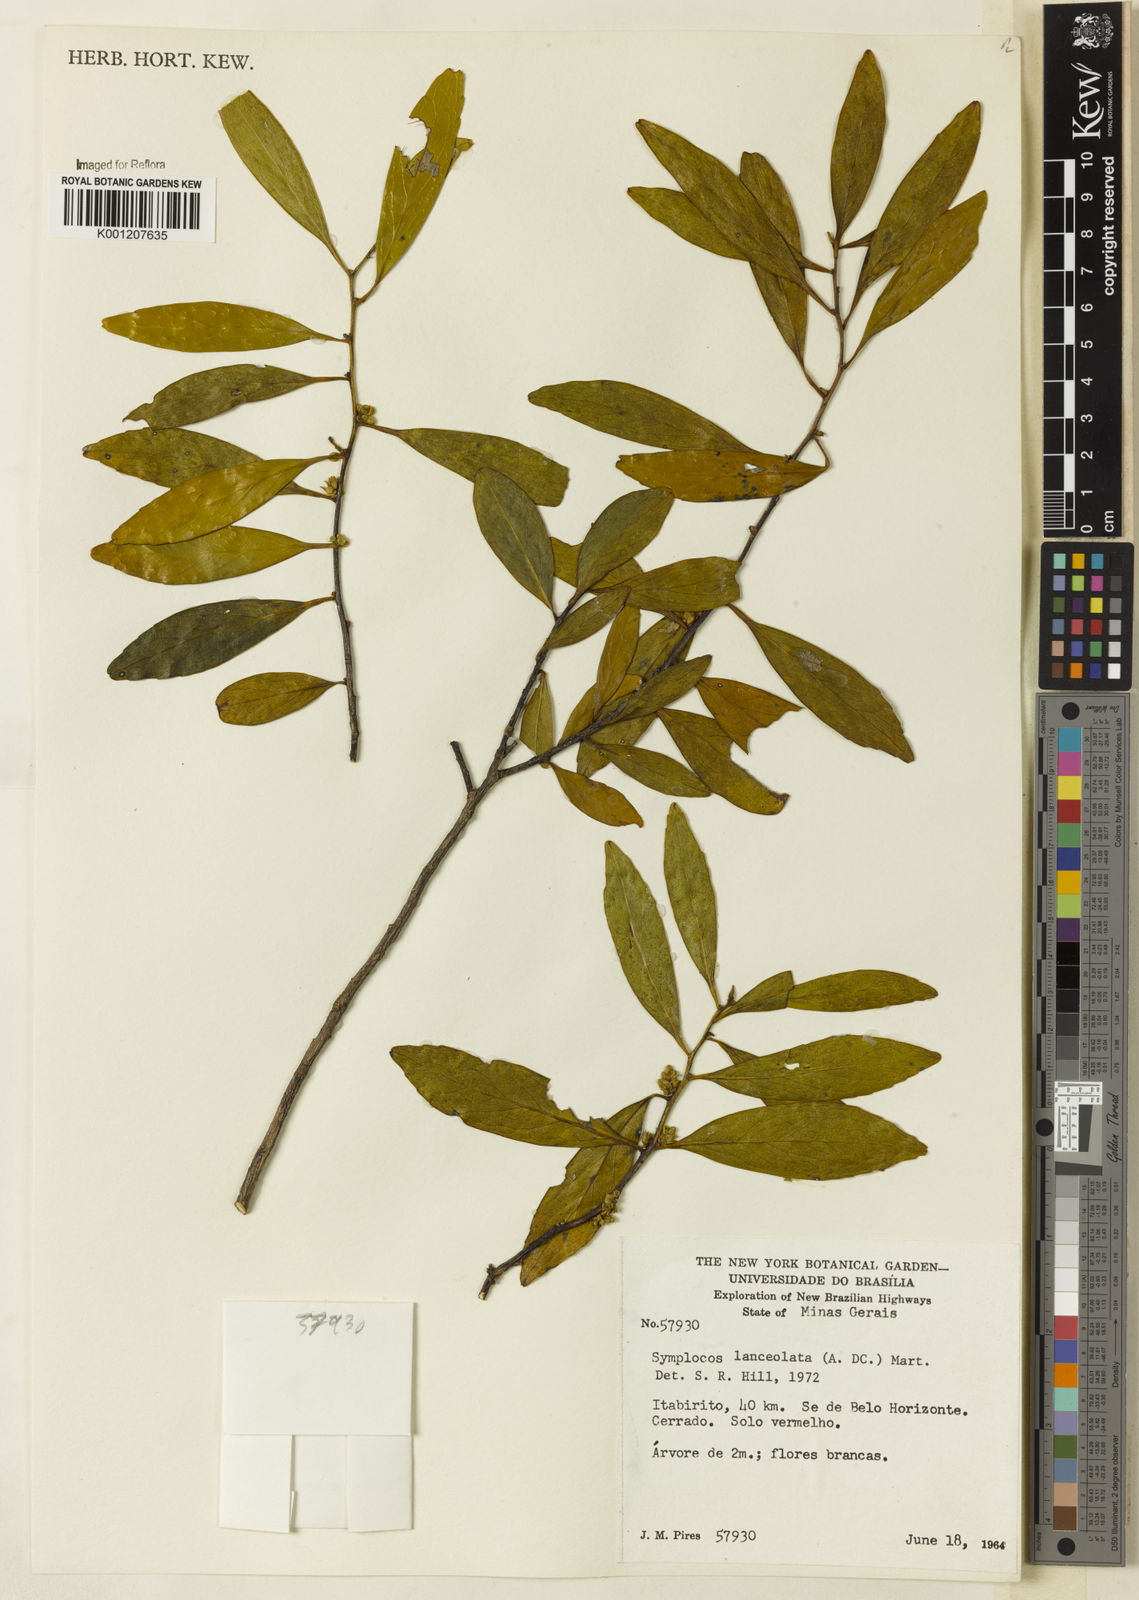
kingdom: Plantae
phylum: Tracheophyta
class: Magnoliopsida
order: Ericales
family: Symplocaceae
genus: Symplocos
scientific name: Symplocos oblongifolia
